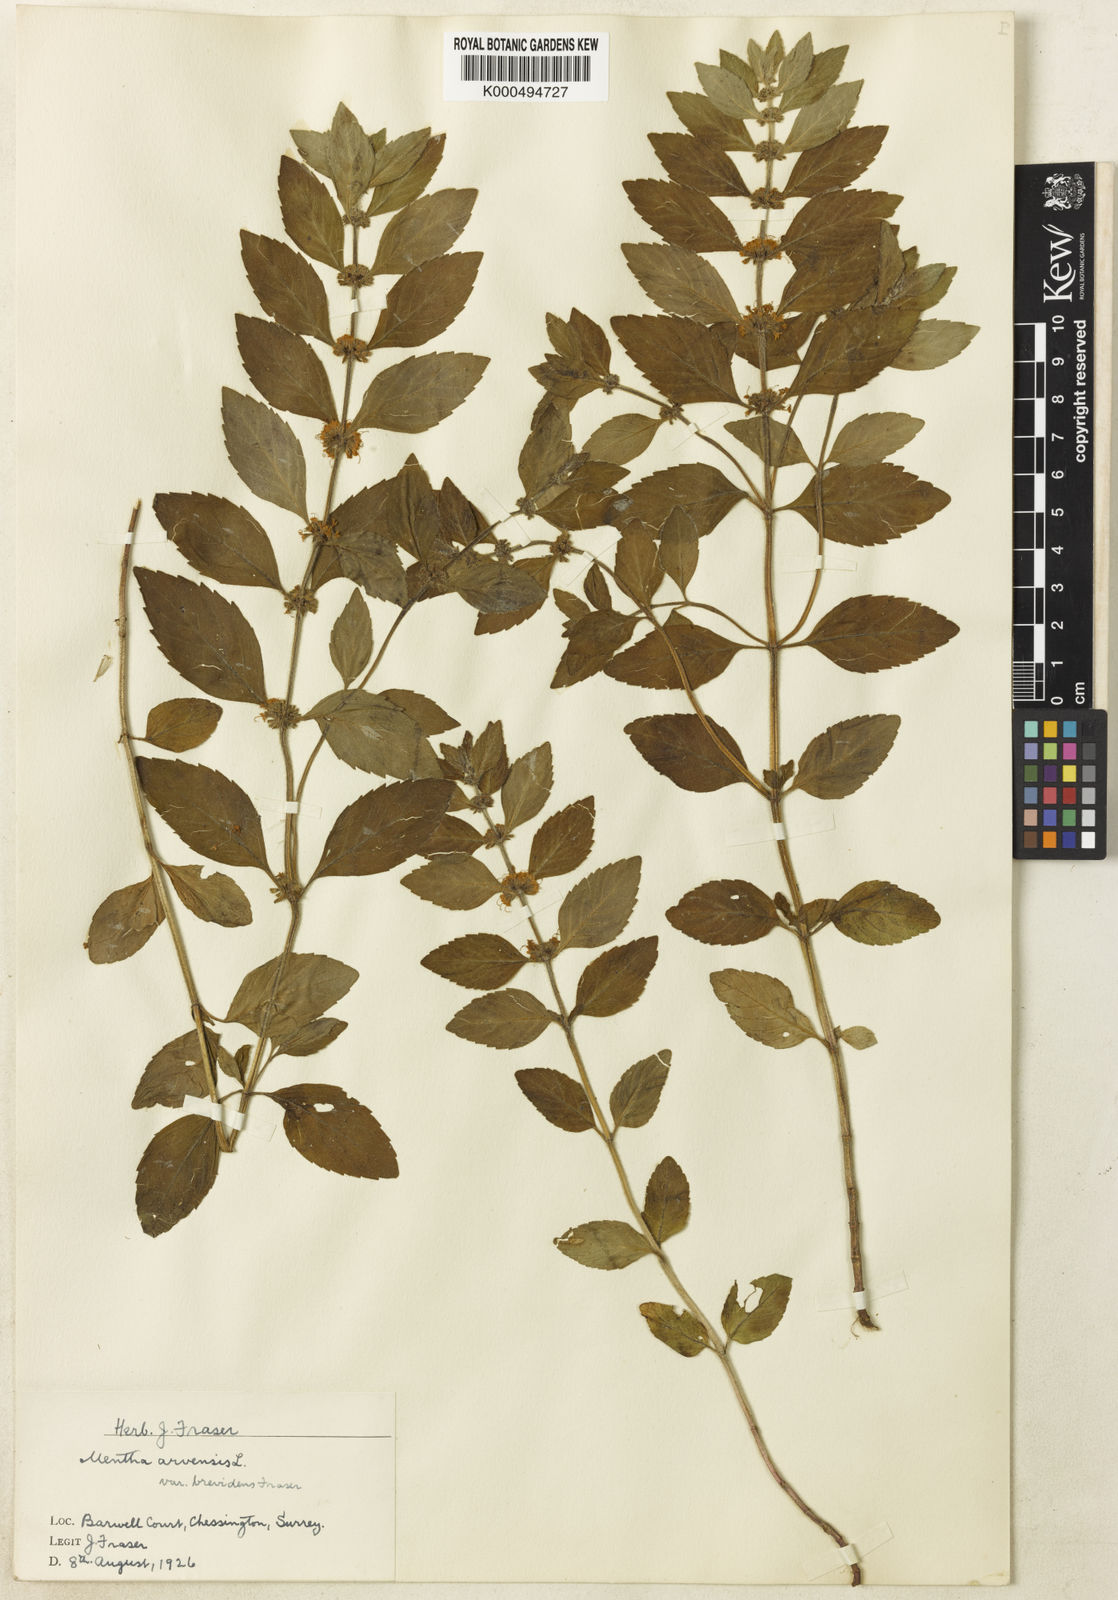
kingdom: Plantae
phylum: Tracheophyta
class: Magnoliopsida
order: Lamiales
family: Lamiaceae
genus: Mentha
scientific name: Mentha arvensis
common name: Corn mint
